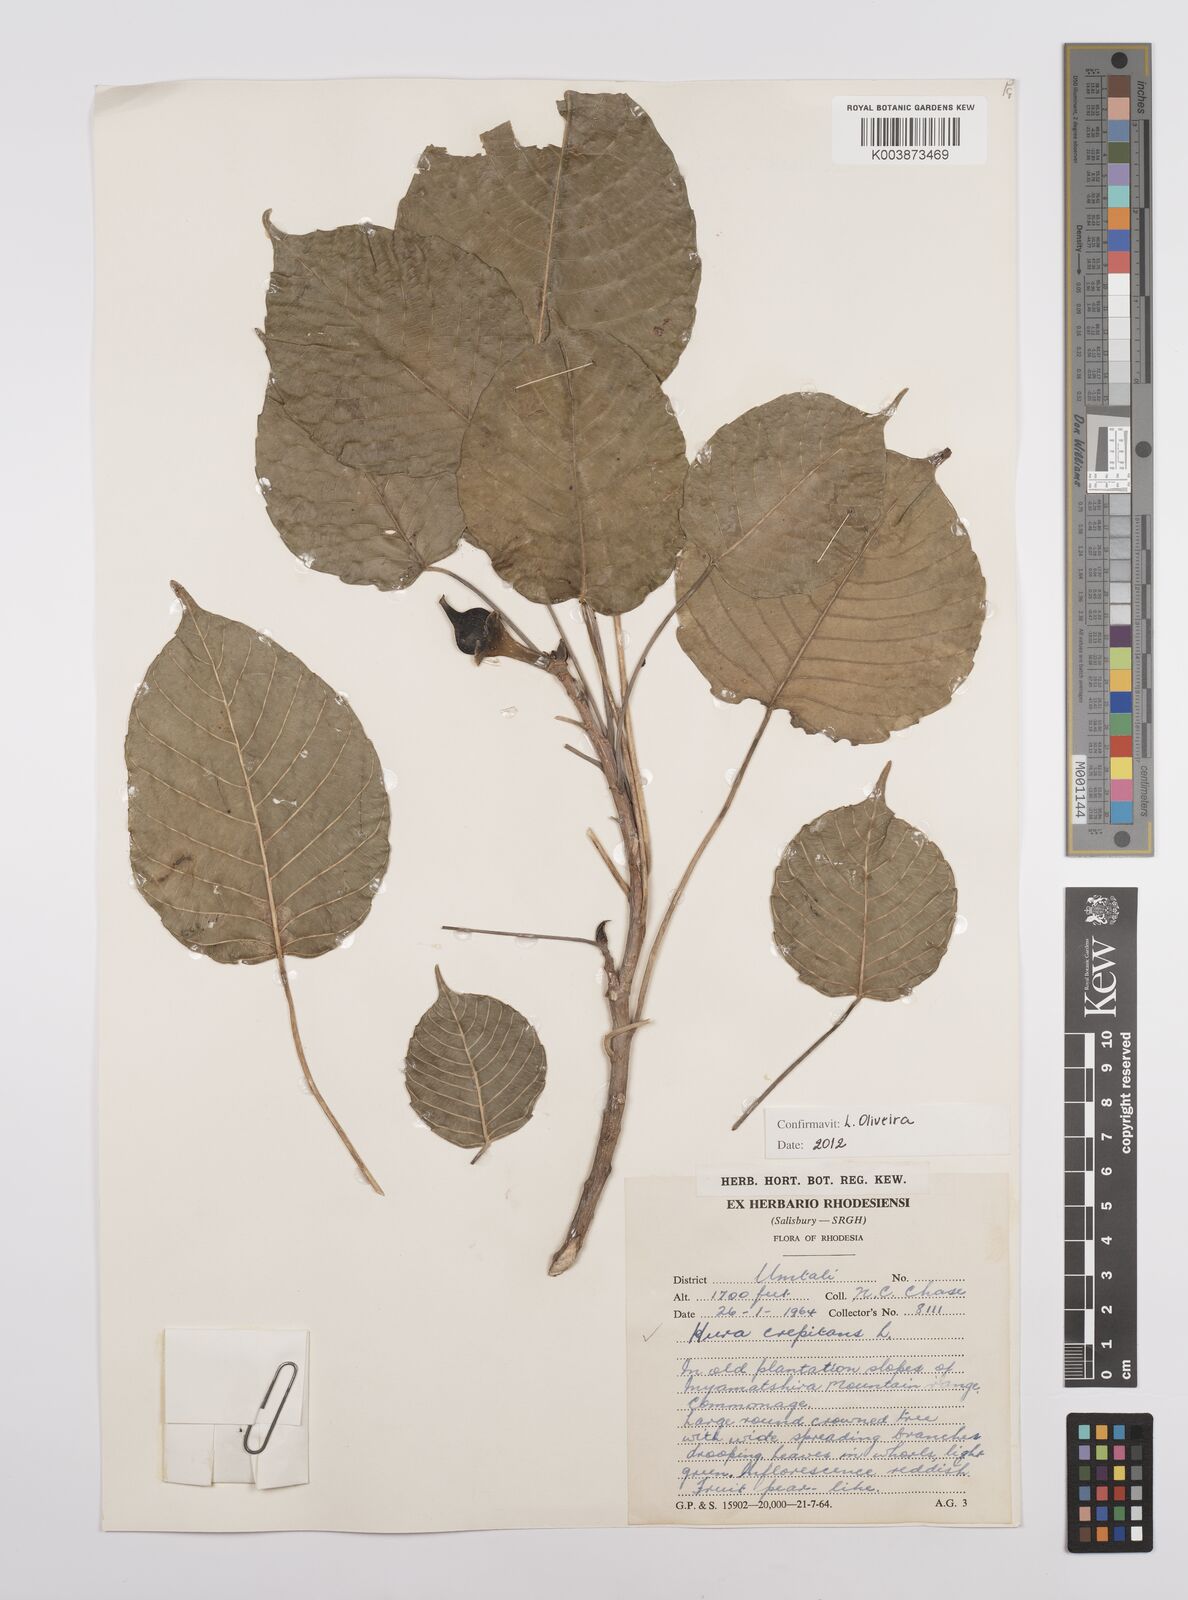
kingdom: Plantae
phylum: Tracheophyta
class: Magnoliopsida
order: Malpighiales
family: Euphorbiaceae
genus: Hura
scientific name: Hura crepitans
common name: Sandboxtree
